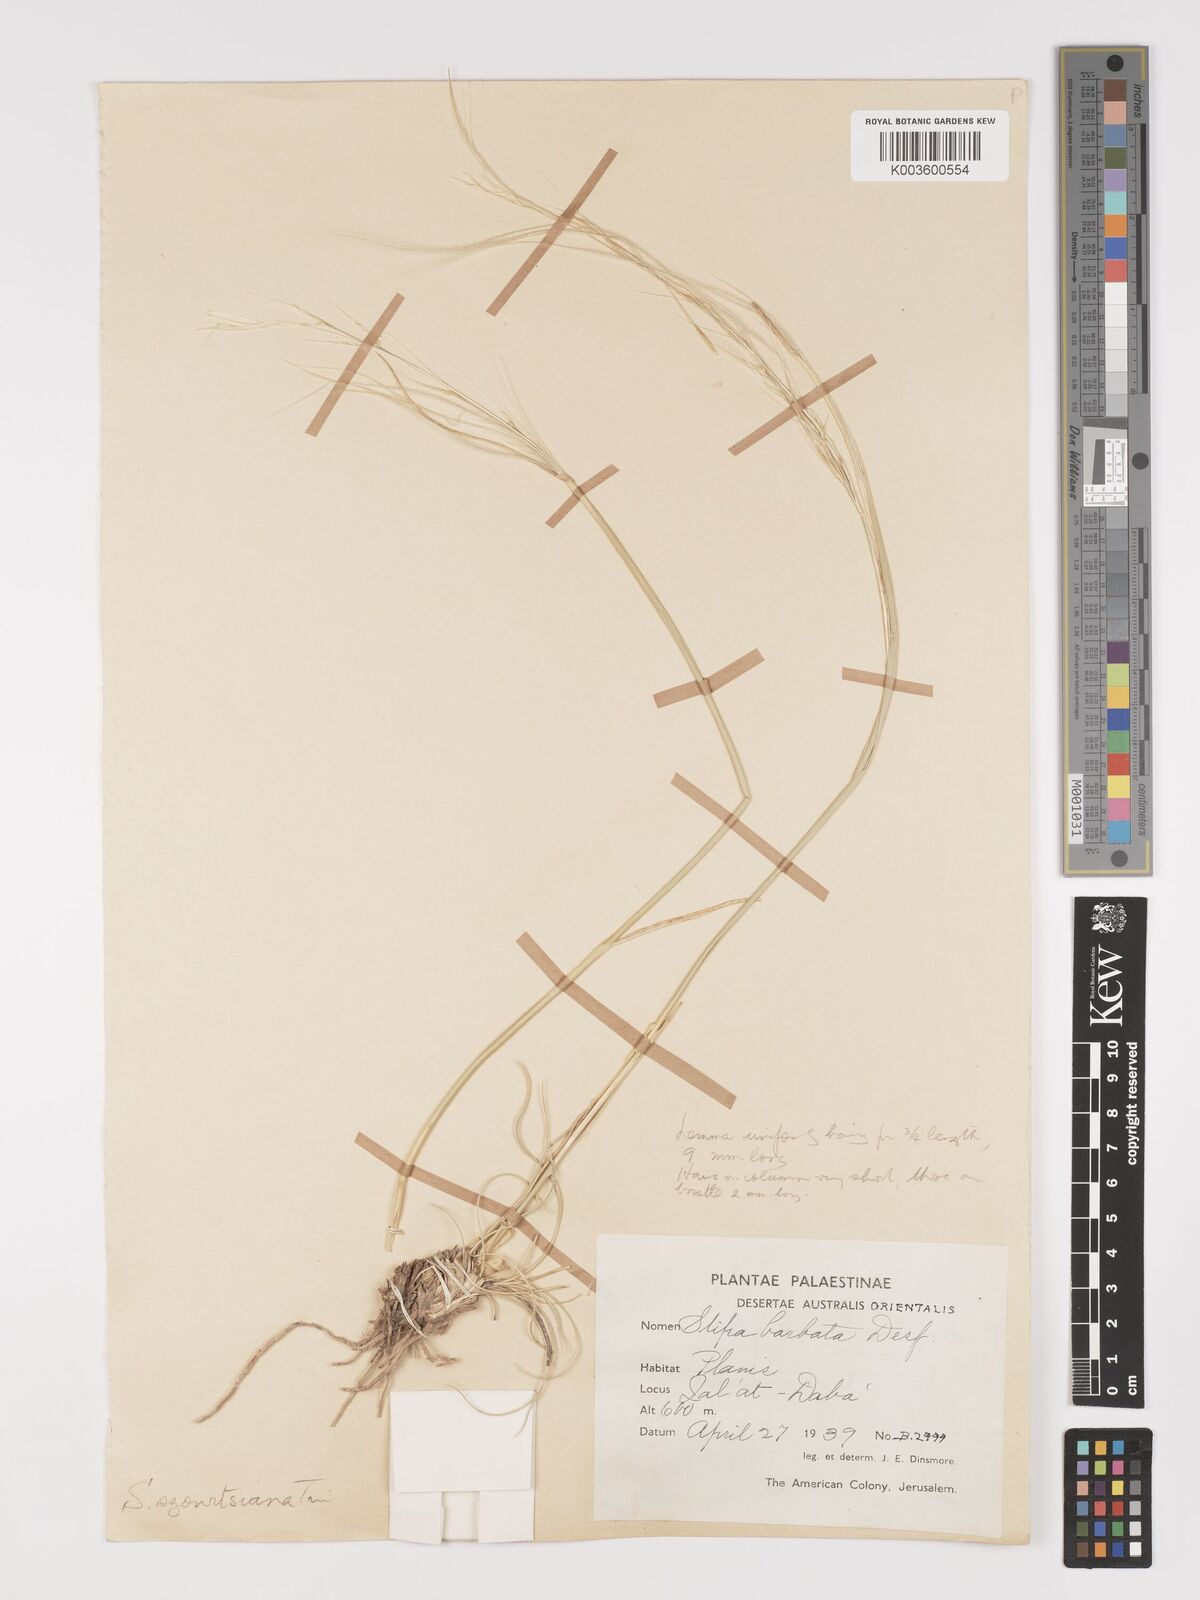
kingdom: Plantae
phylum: Tracheophyta
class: Liliopsida
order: Poales
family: Poaceae
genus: Stipa
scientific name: Stipa barbata
